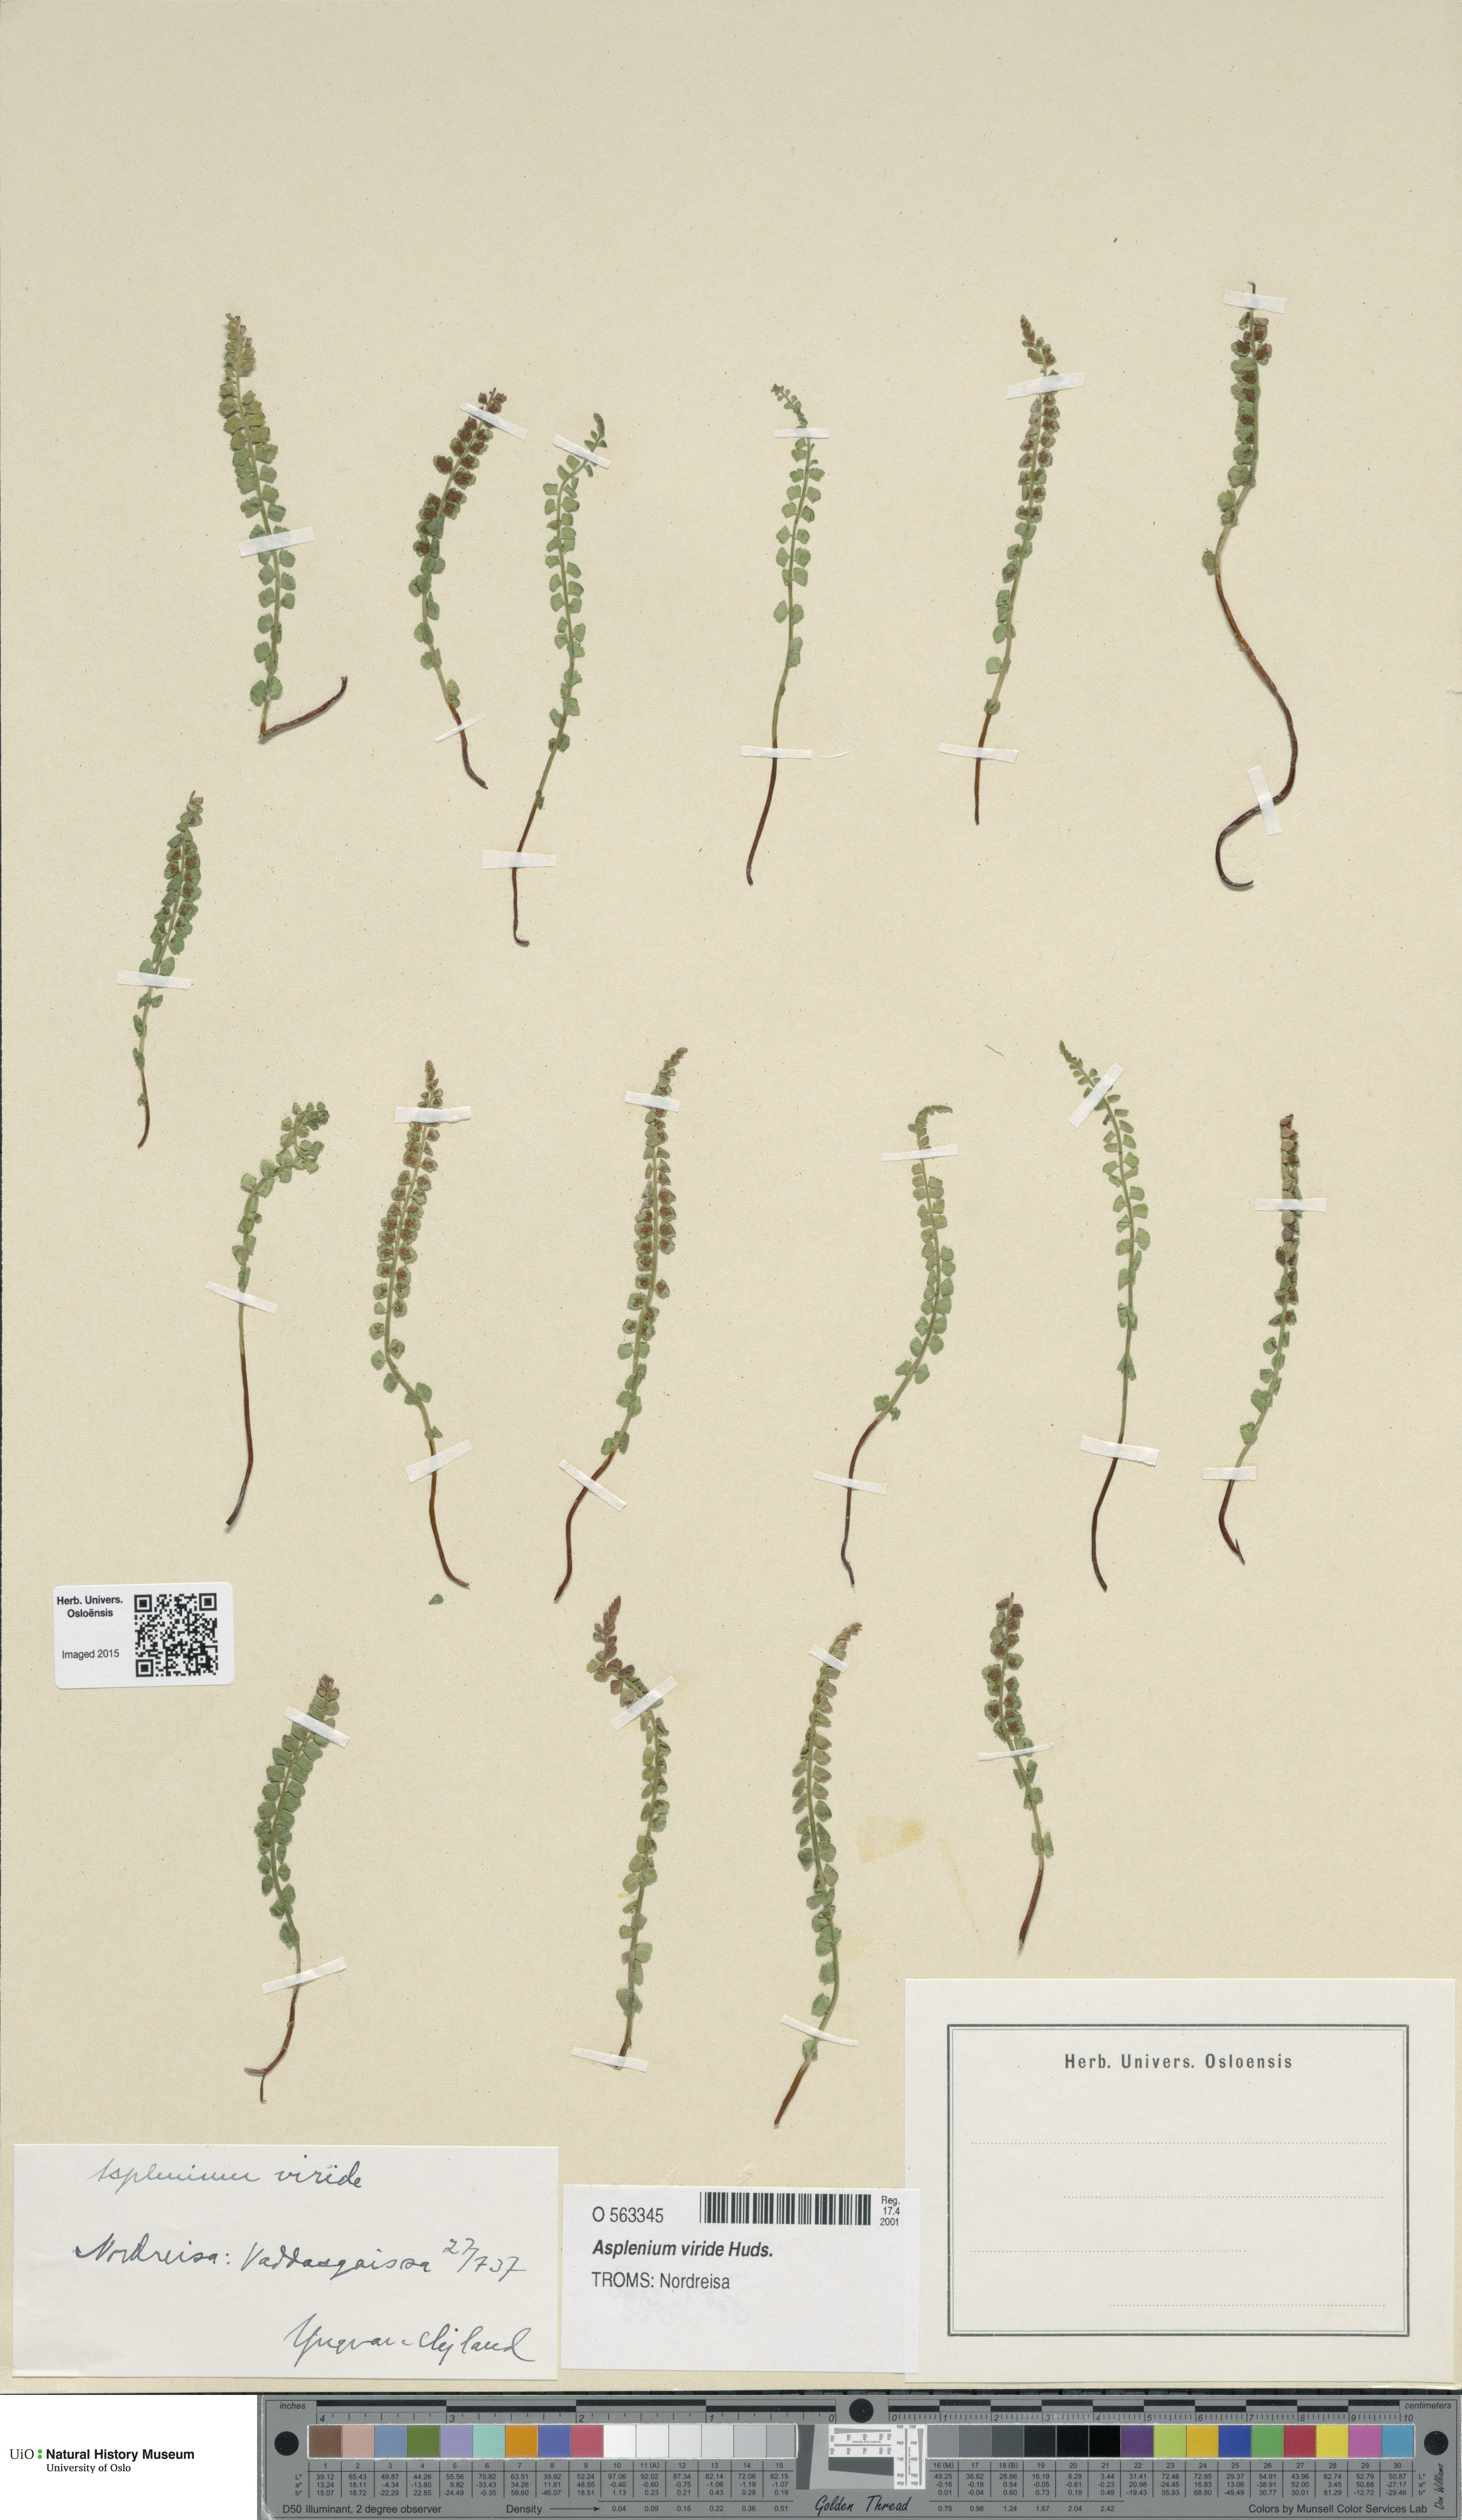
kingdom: Plantae
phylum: Tracheophyta
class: Polypodiopsida
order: Polypodiales
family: Aspleniaceae
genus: Asplenium
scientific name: Asplenium viride
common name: Green spleenwort
